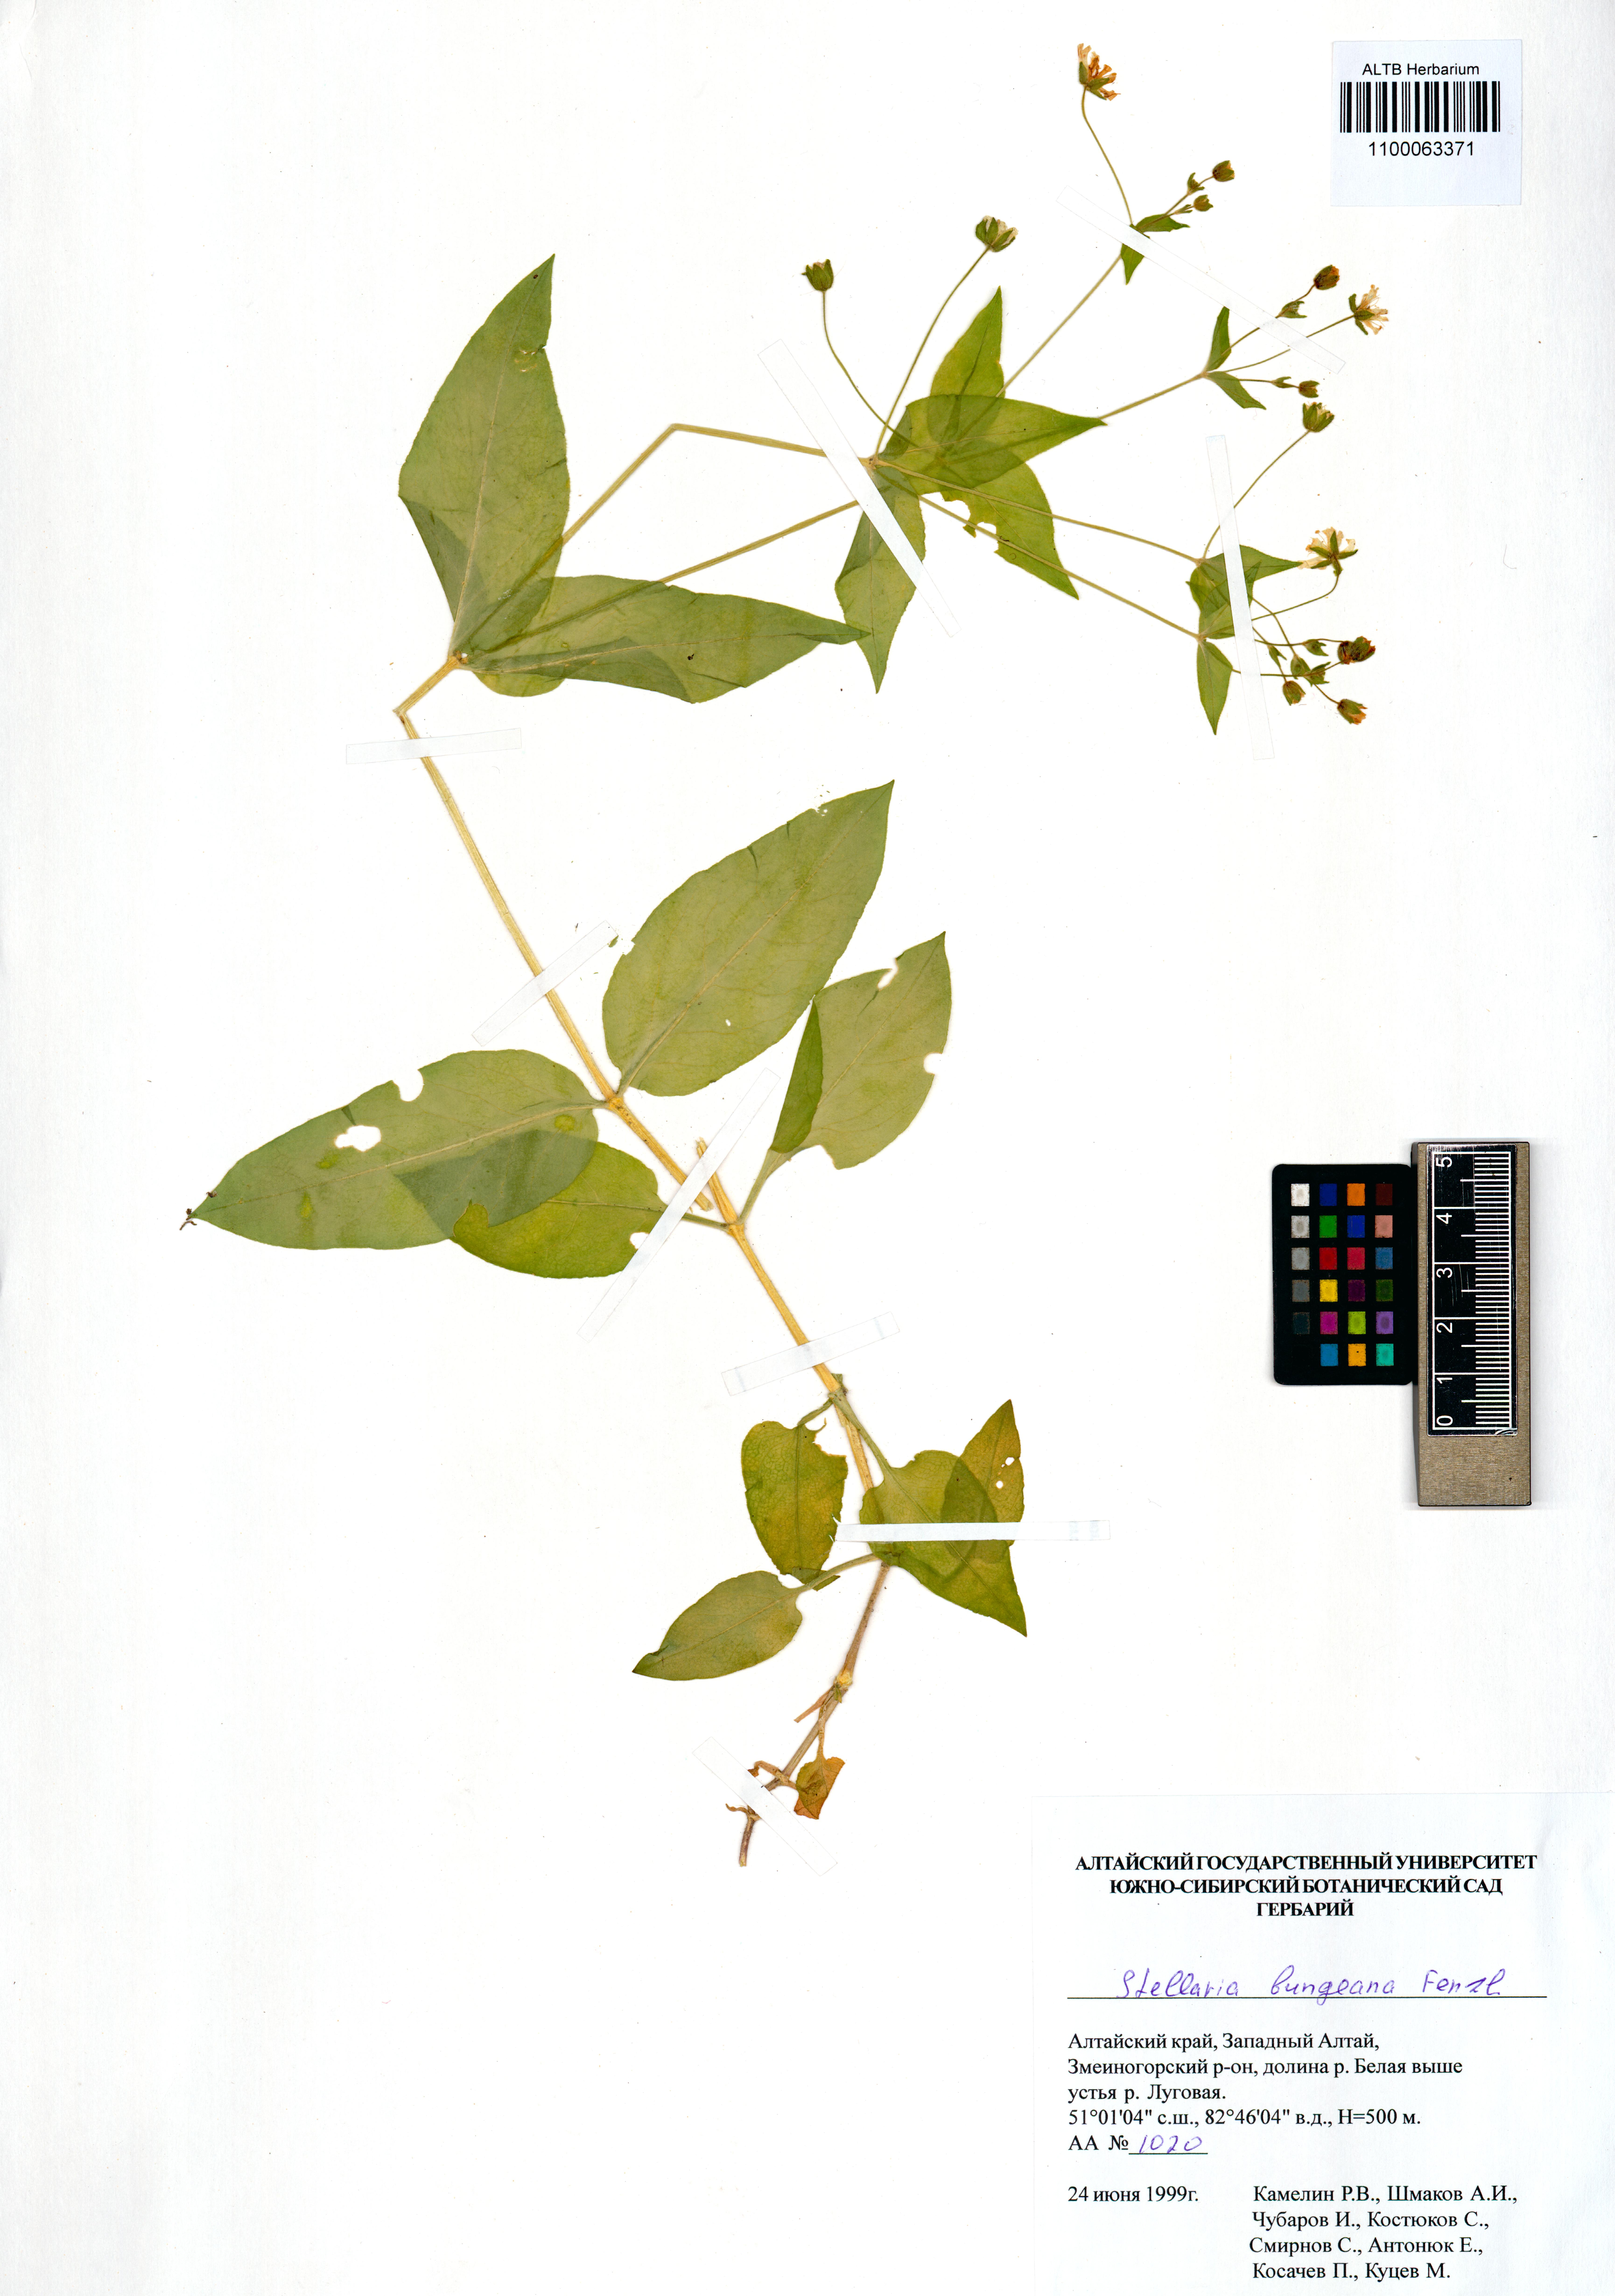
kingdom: Plantae
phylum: Tracheophyta
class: Magnoliopsida
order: Caryophyllales
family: Caryophyllaceae
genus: Stellaria
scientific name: Stellaria bungeana
